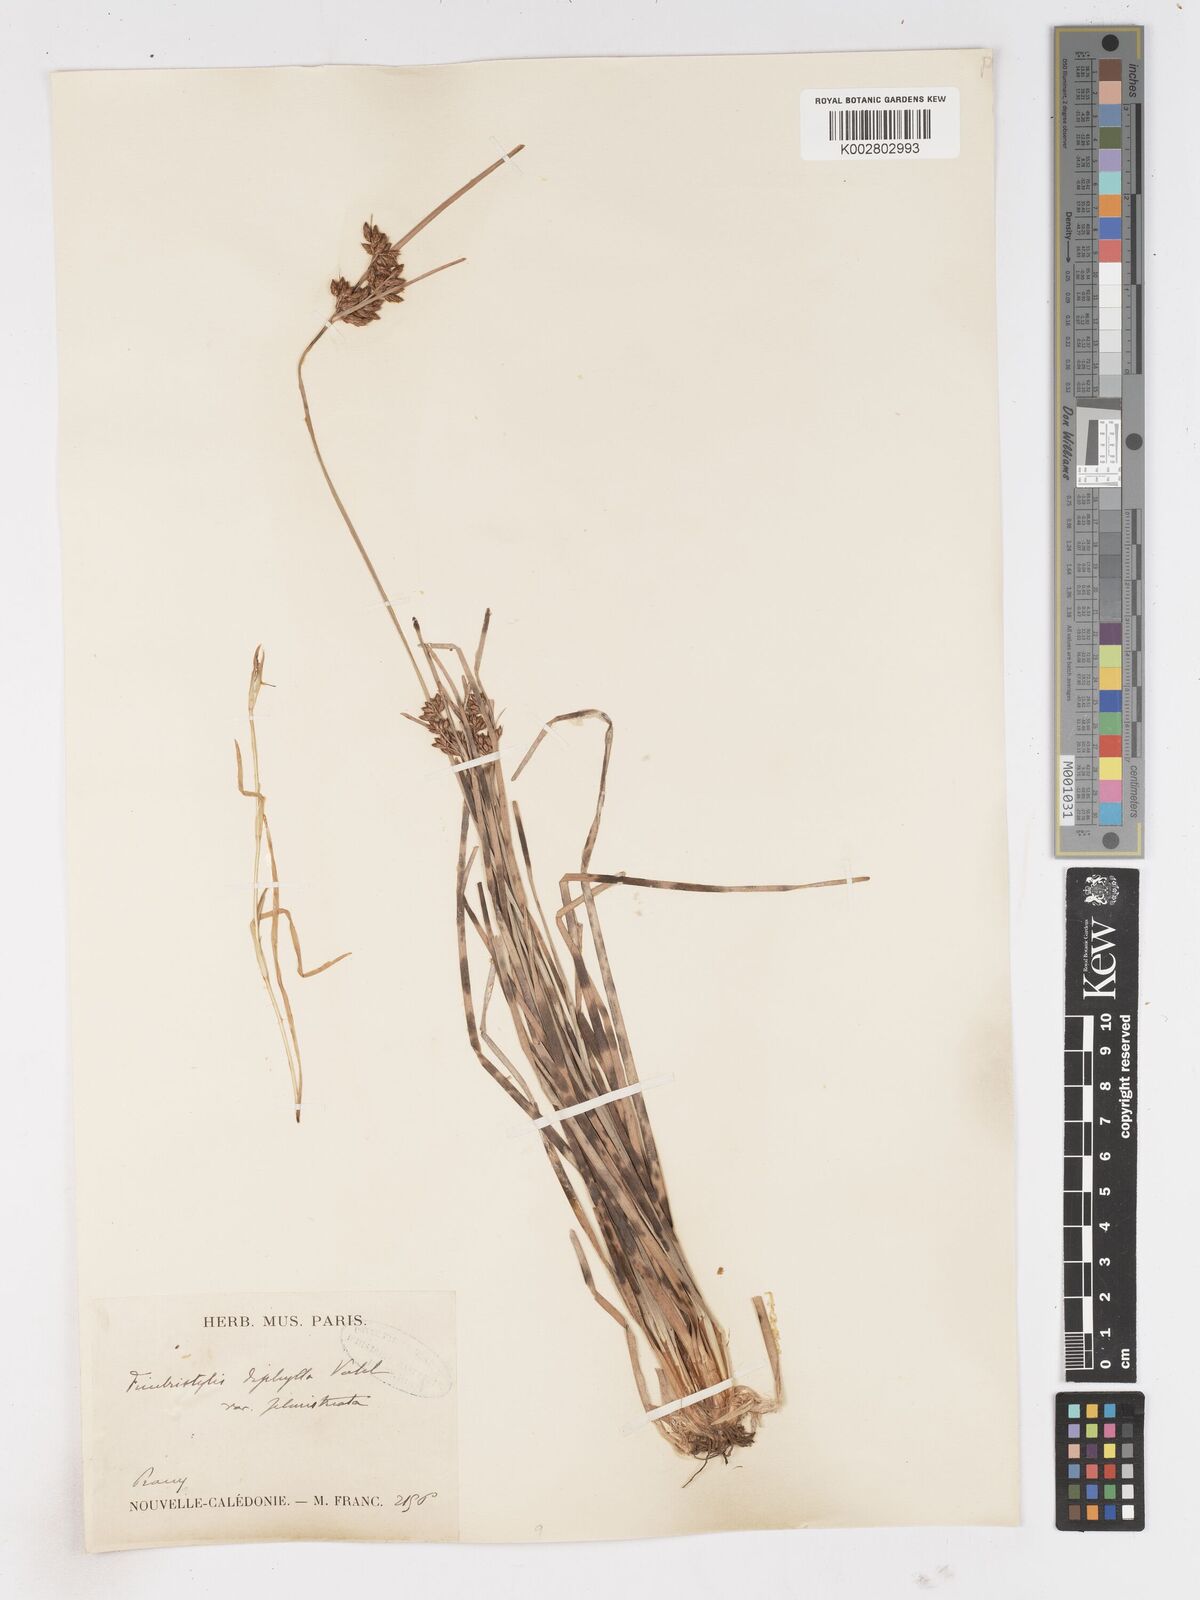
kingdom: Plantae
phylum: Tracheophyta
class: Liliopsida
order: Poales
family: Cyperaceae
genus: Fimbristylis
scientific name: Fimbristylis dichotoma
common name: Forked fimbry
